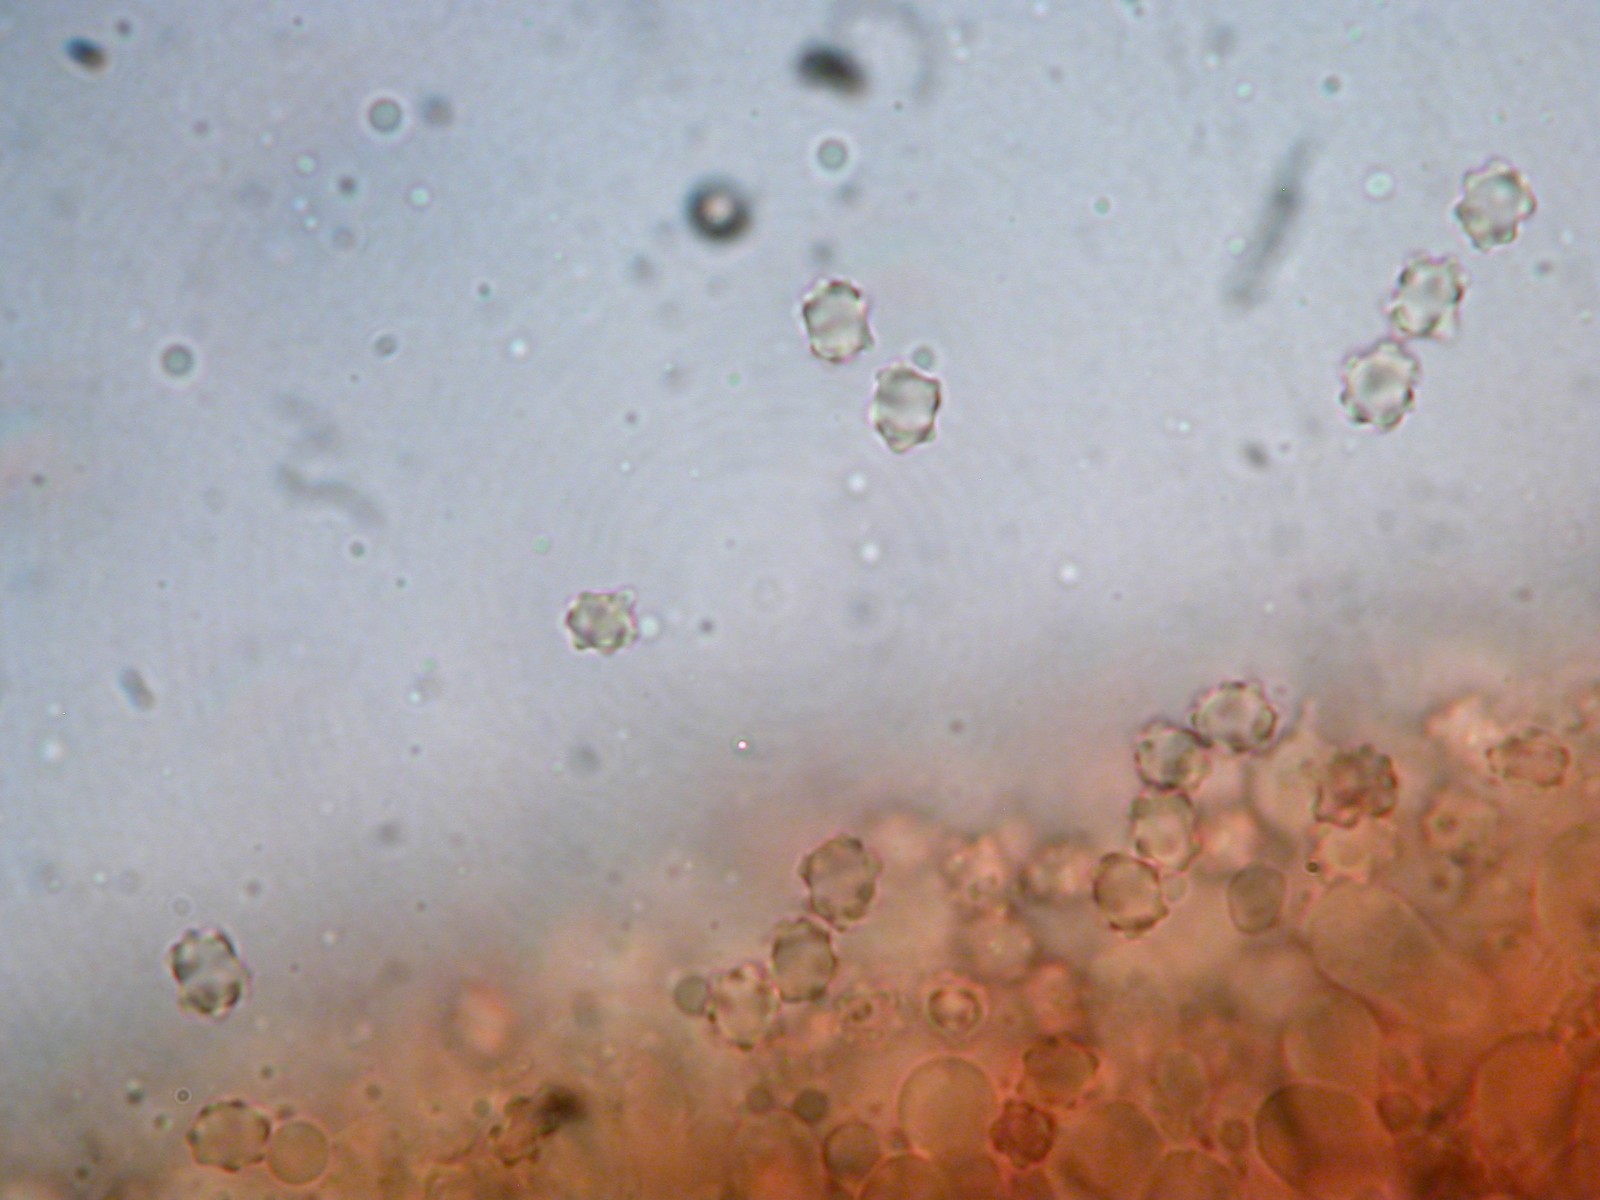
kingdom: Fungi
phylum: Basidiomycota
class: Agaricomycetes
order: Thelephorales
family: Bankeraceae
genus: Hydnellum
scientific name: Hydnellum concrescens
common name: Zoned tooth
